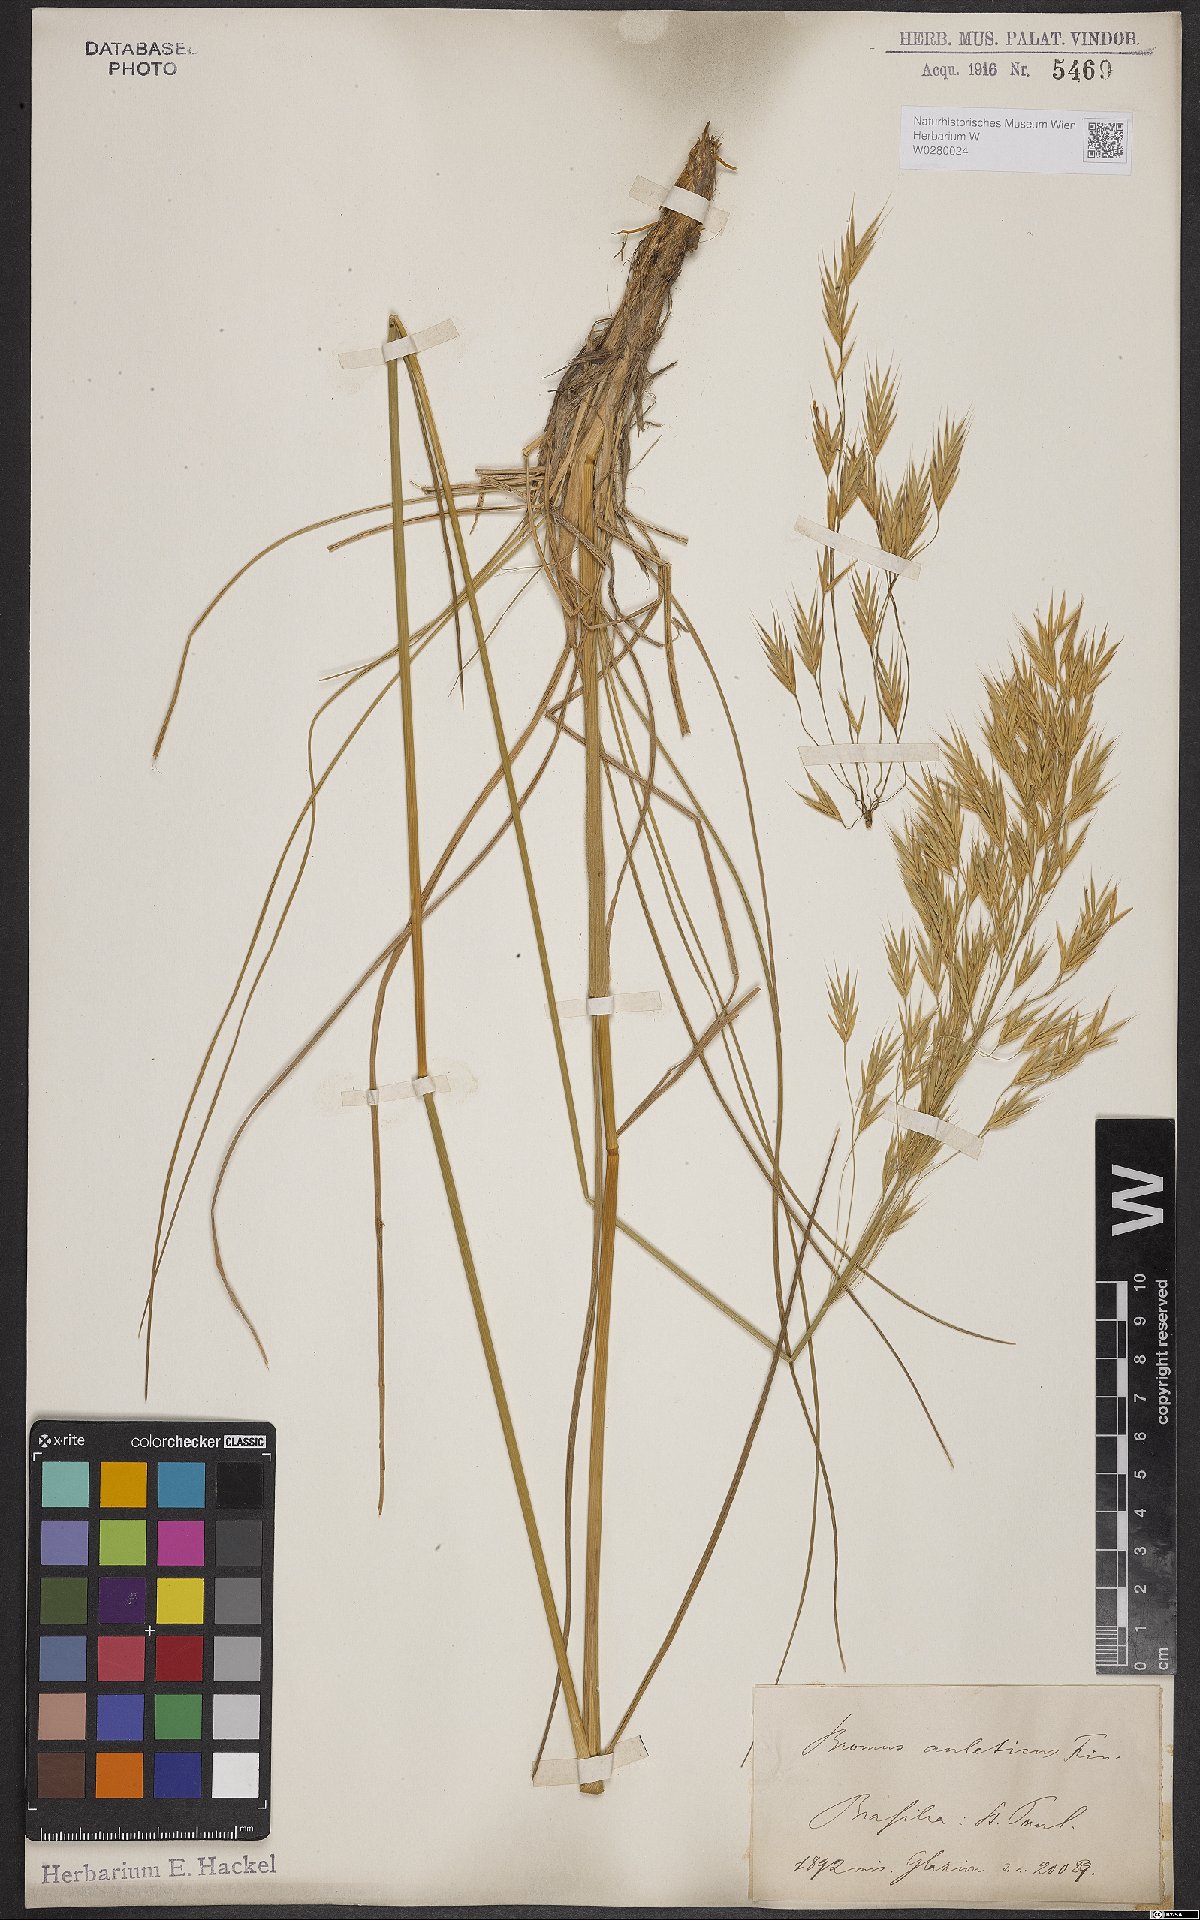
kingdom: Plantae
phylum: Tracheophyta
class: Liliopsida
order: Poales
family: Poaceae
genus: Bromus
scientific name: Bromus auleticus
